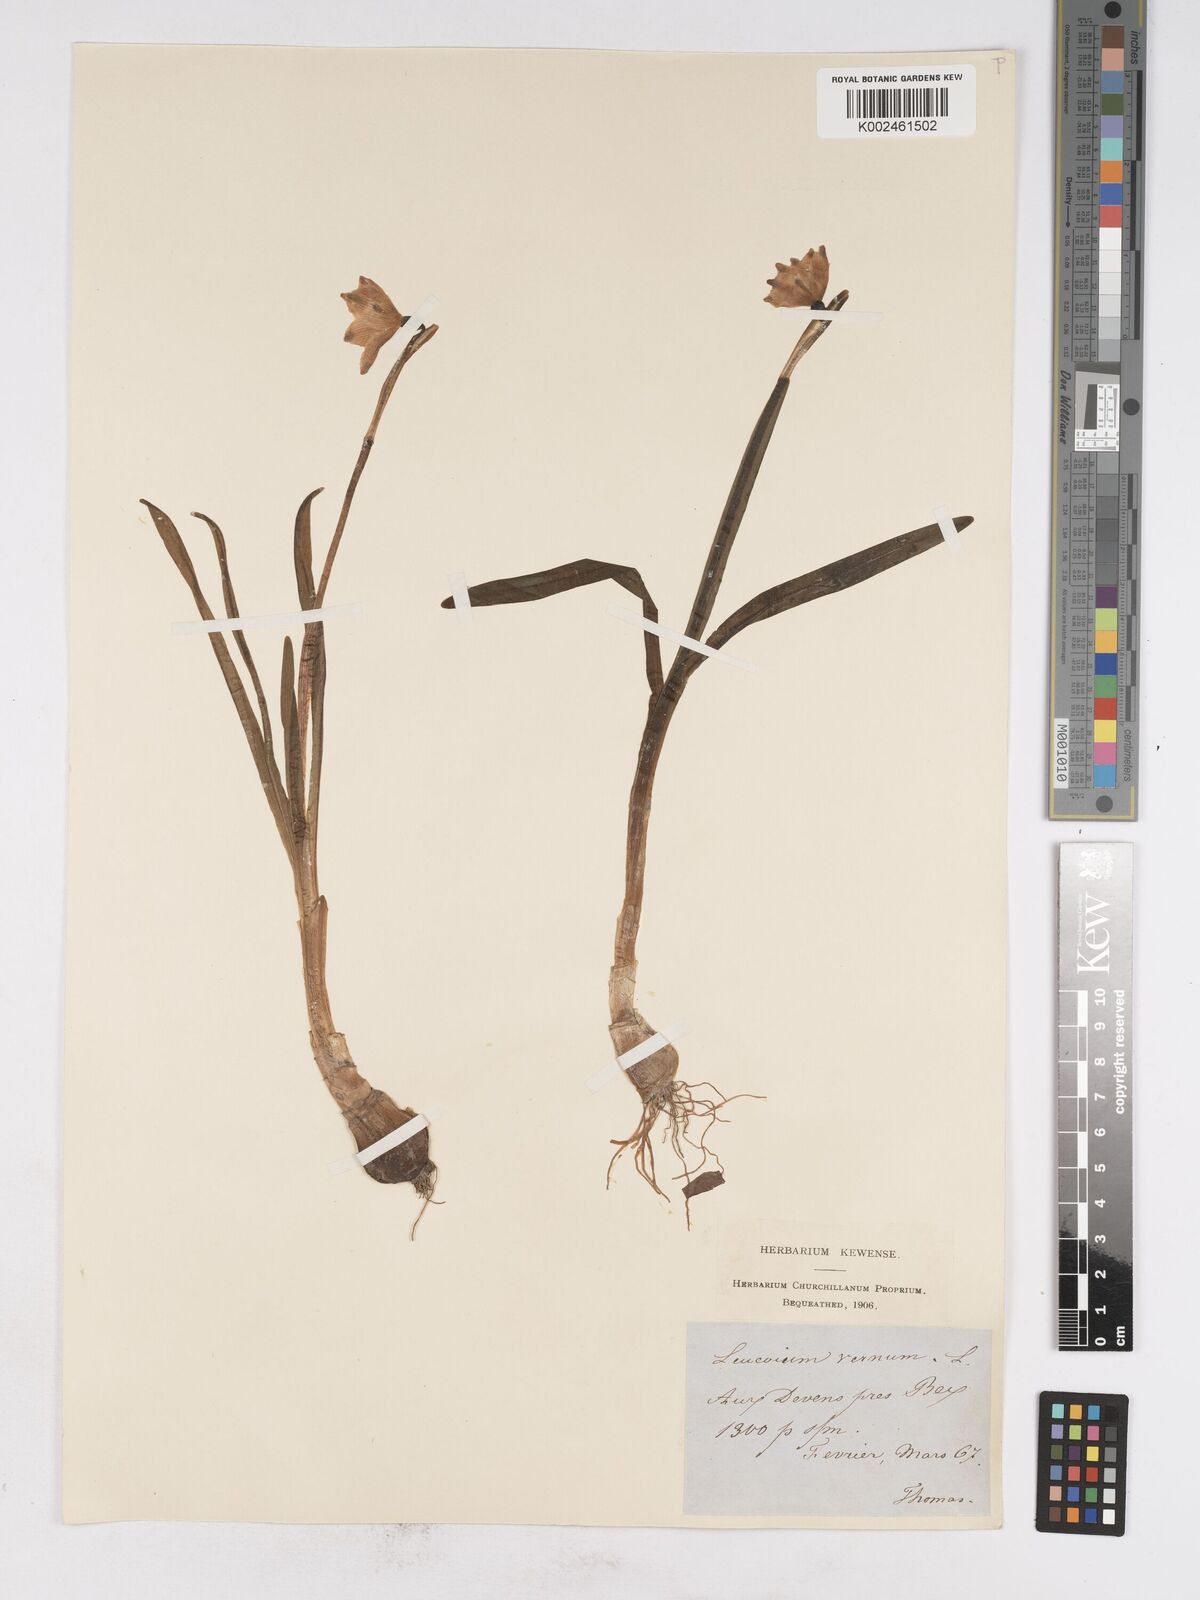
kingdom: Plantae
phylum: Tracheophyta
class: Liliopsida
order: Asparagales
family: Amaryllidaceae
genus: Leucojum
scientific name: Leucojum vernum
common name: Spring snowflake
